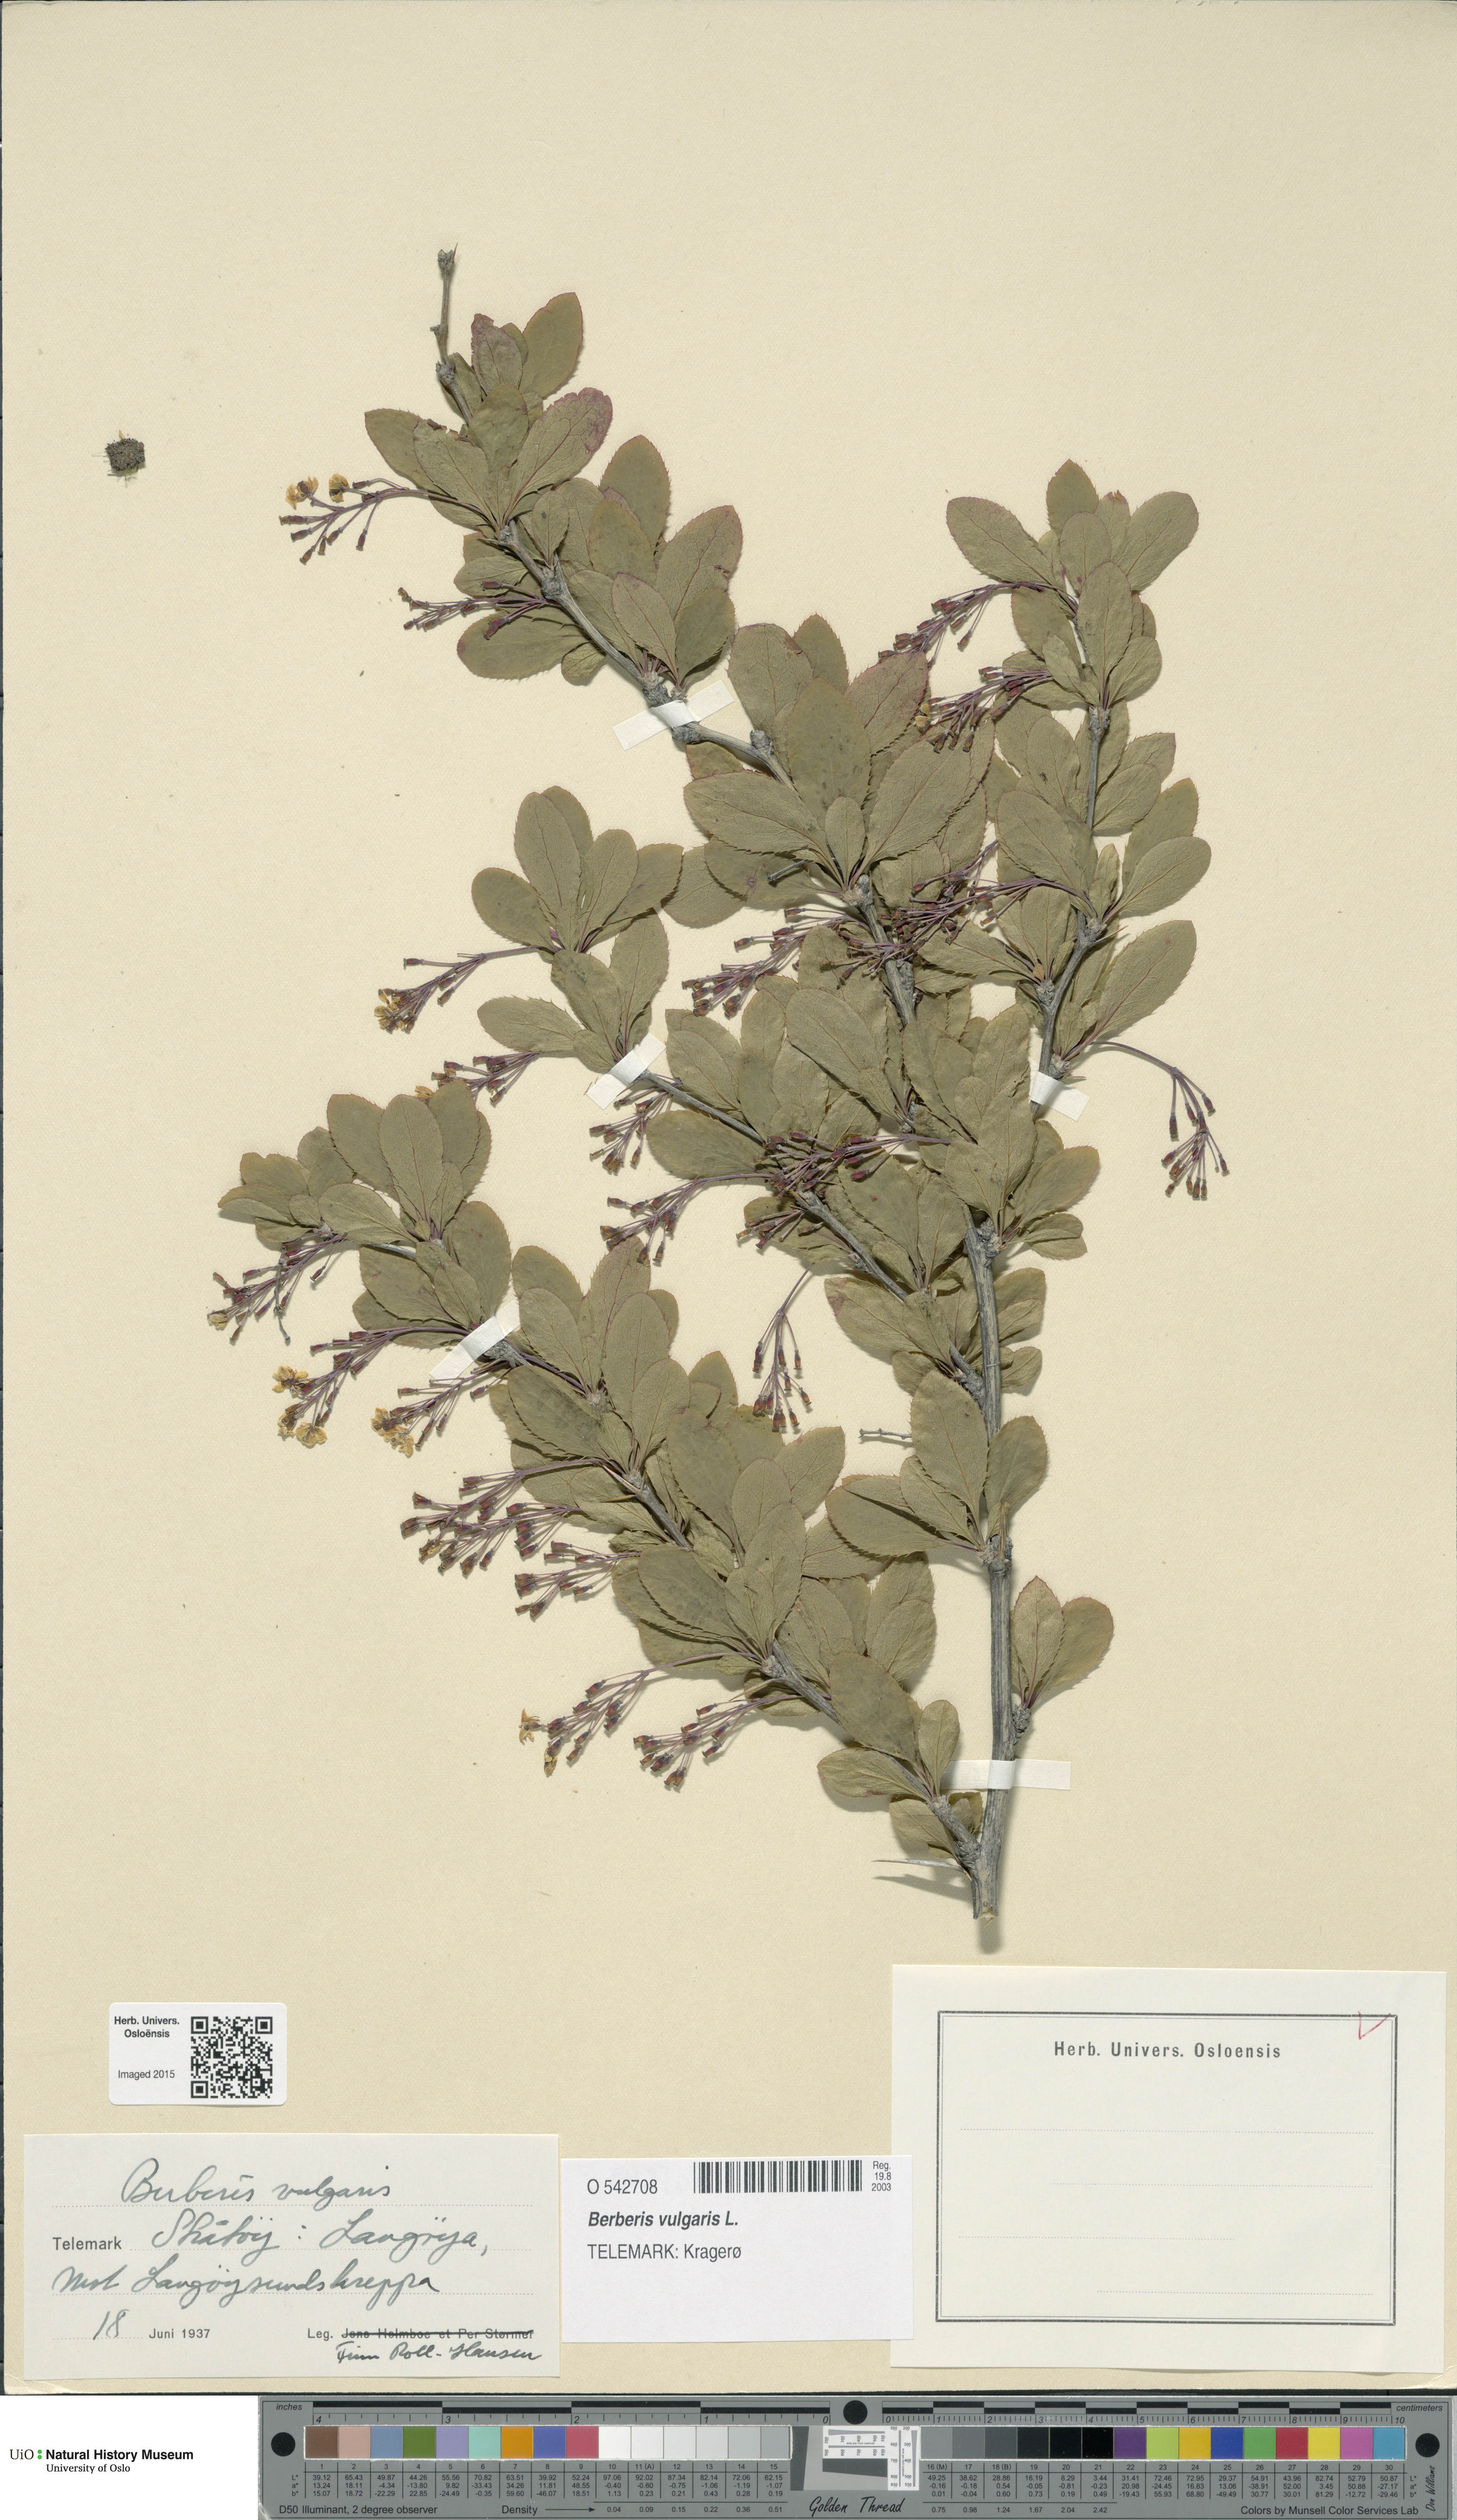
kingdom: Plantae
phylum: Tracheophyta
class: Magnoliopsida
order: Ranunculales
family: Berberidaceae
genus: Berberis
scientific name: Berberis vulgaris
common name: Barberry
